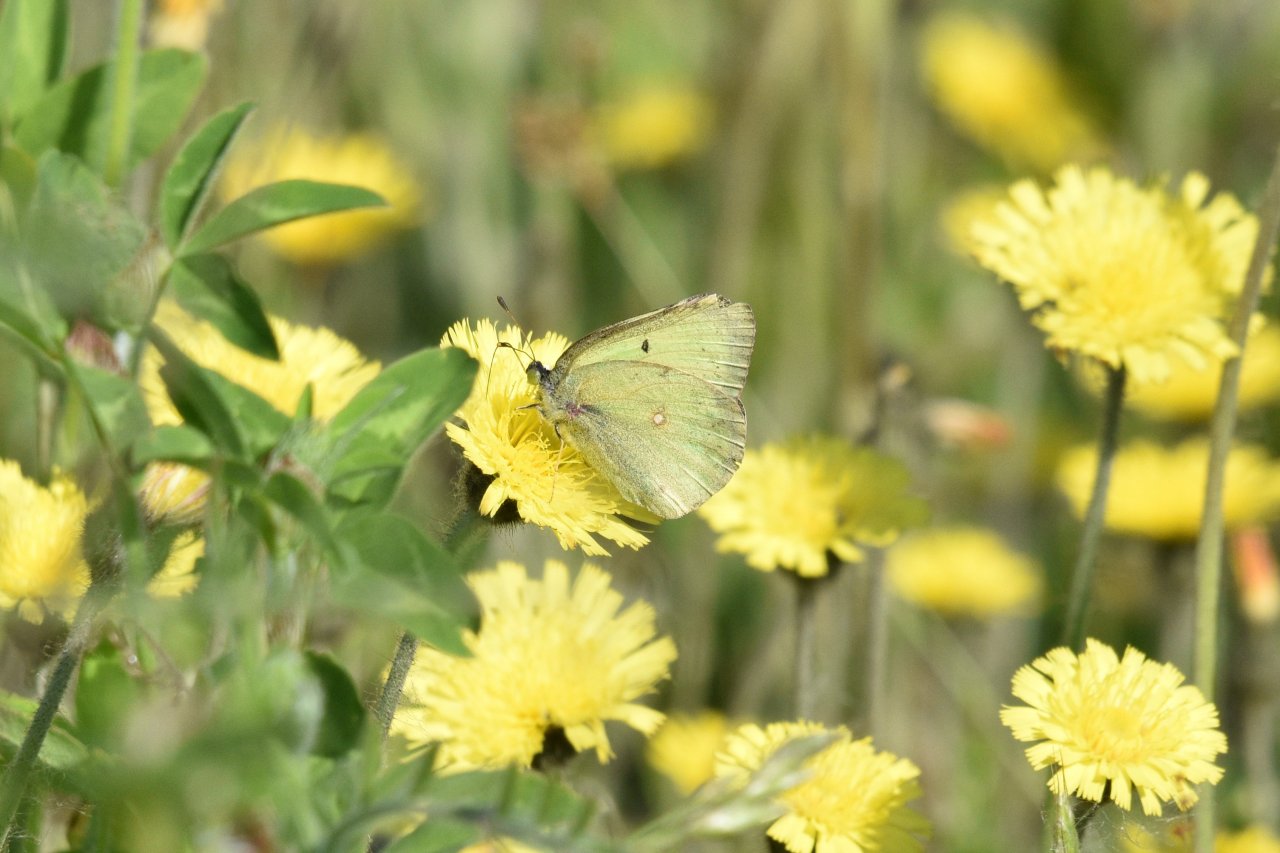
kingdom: Animalia
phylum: Arthropoda
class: Insecta
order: Lepidoptera
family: Pieridae
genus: Colias
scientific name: Colias philodice
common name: Clouded Sulphur
